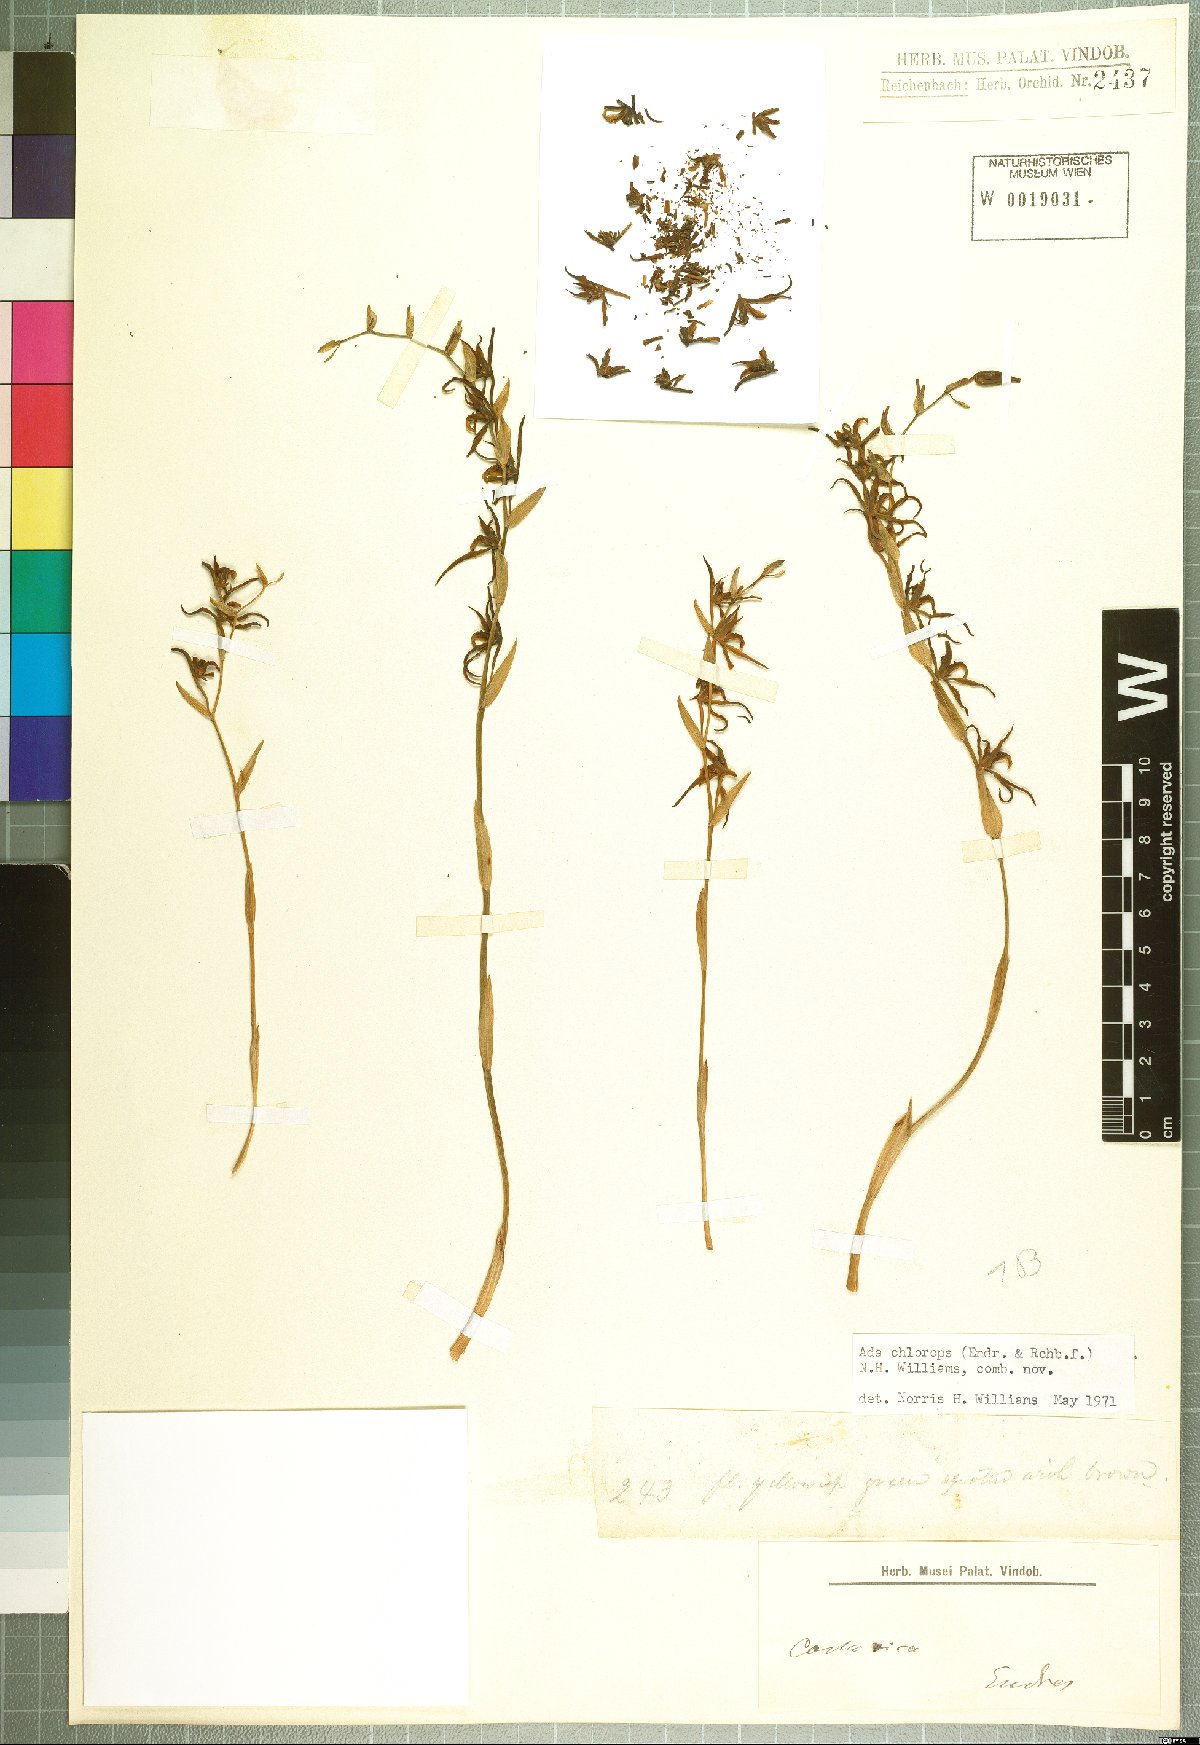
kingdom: Plantae
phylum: Tracheophyta
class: Liliopsida
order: Asparagales
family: Orchidaceae
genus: Brassia
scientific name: Brassia chlorops
